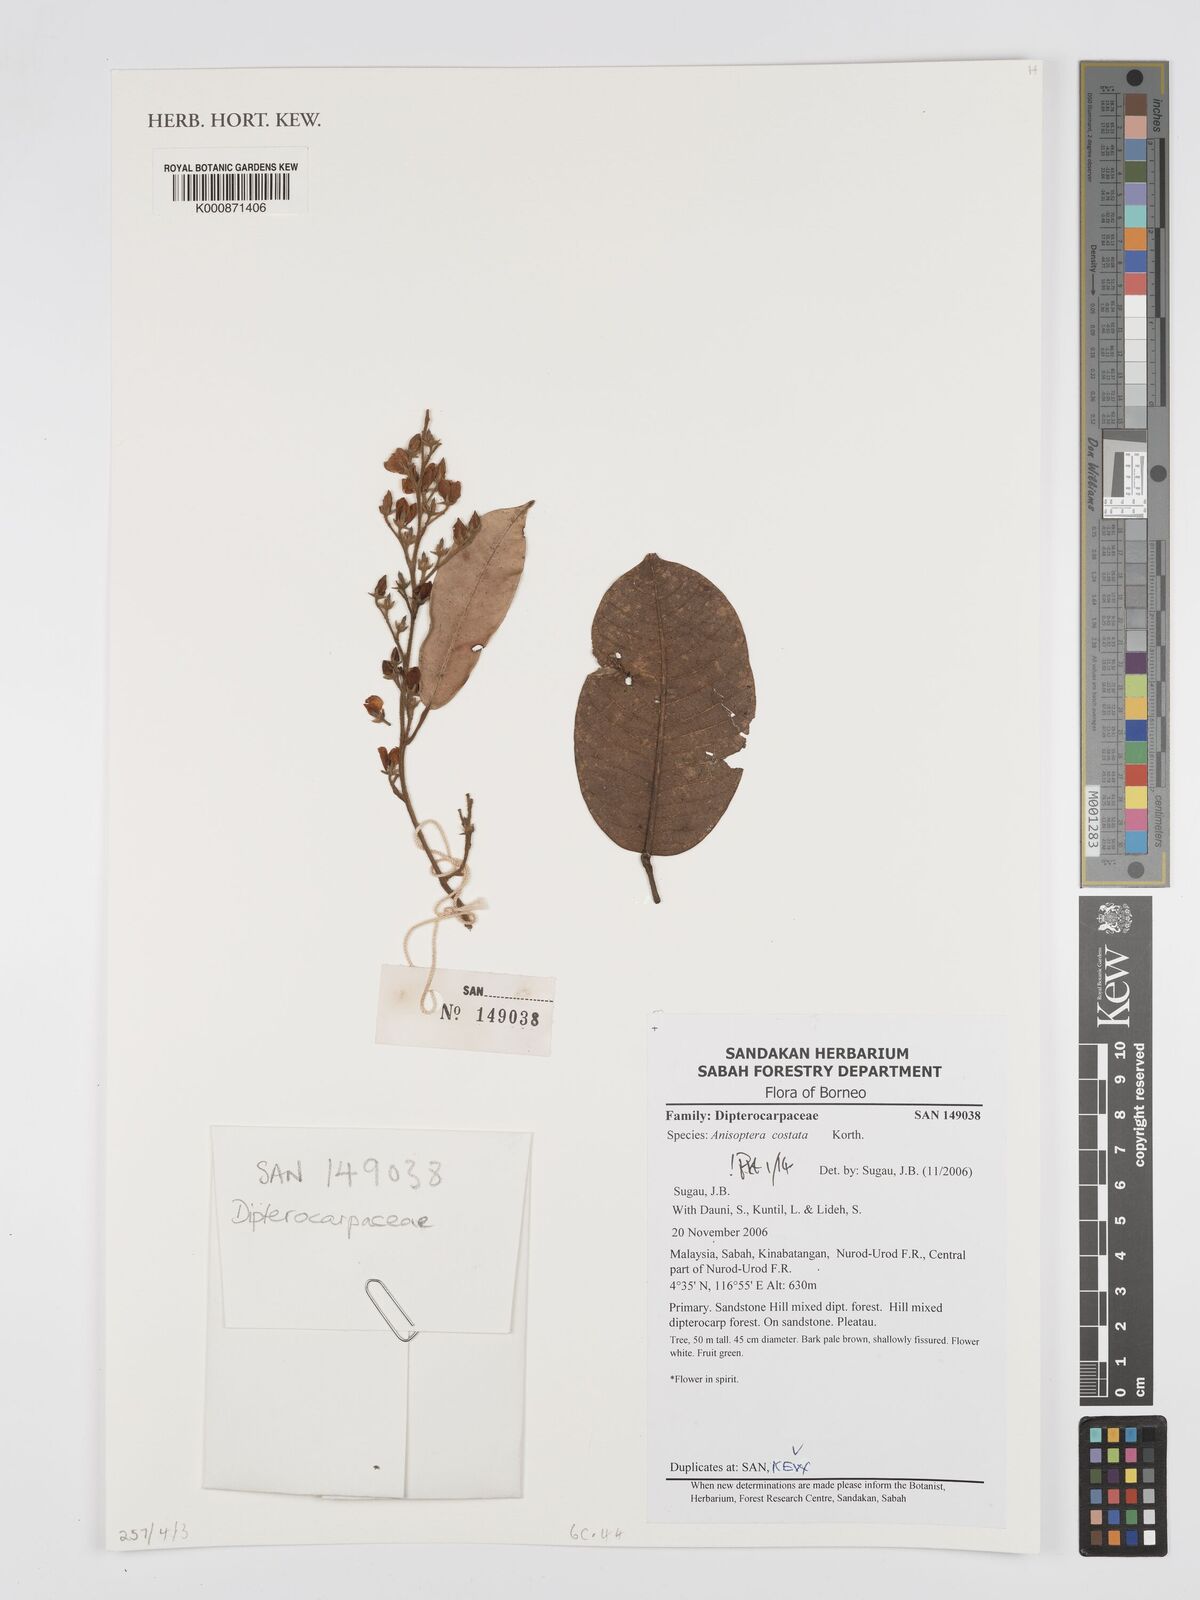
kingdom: Plantae
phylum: Tracheophyta
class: Magnoliopsida
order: Malvales
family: Dipterocarpaceae
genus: Anisoptera
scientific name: Anisoptera costata
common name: Mersawa
